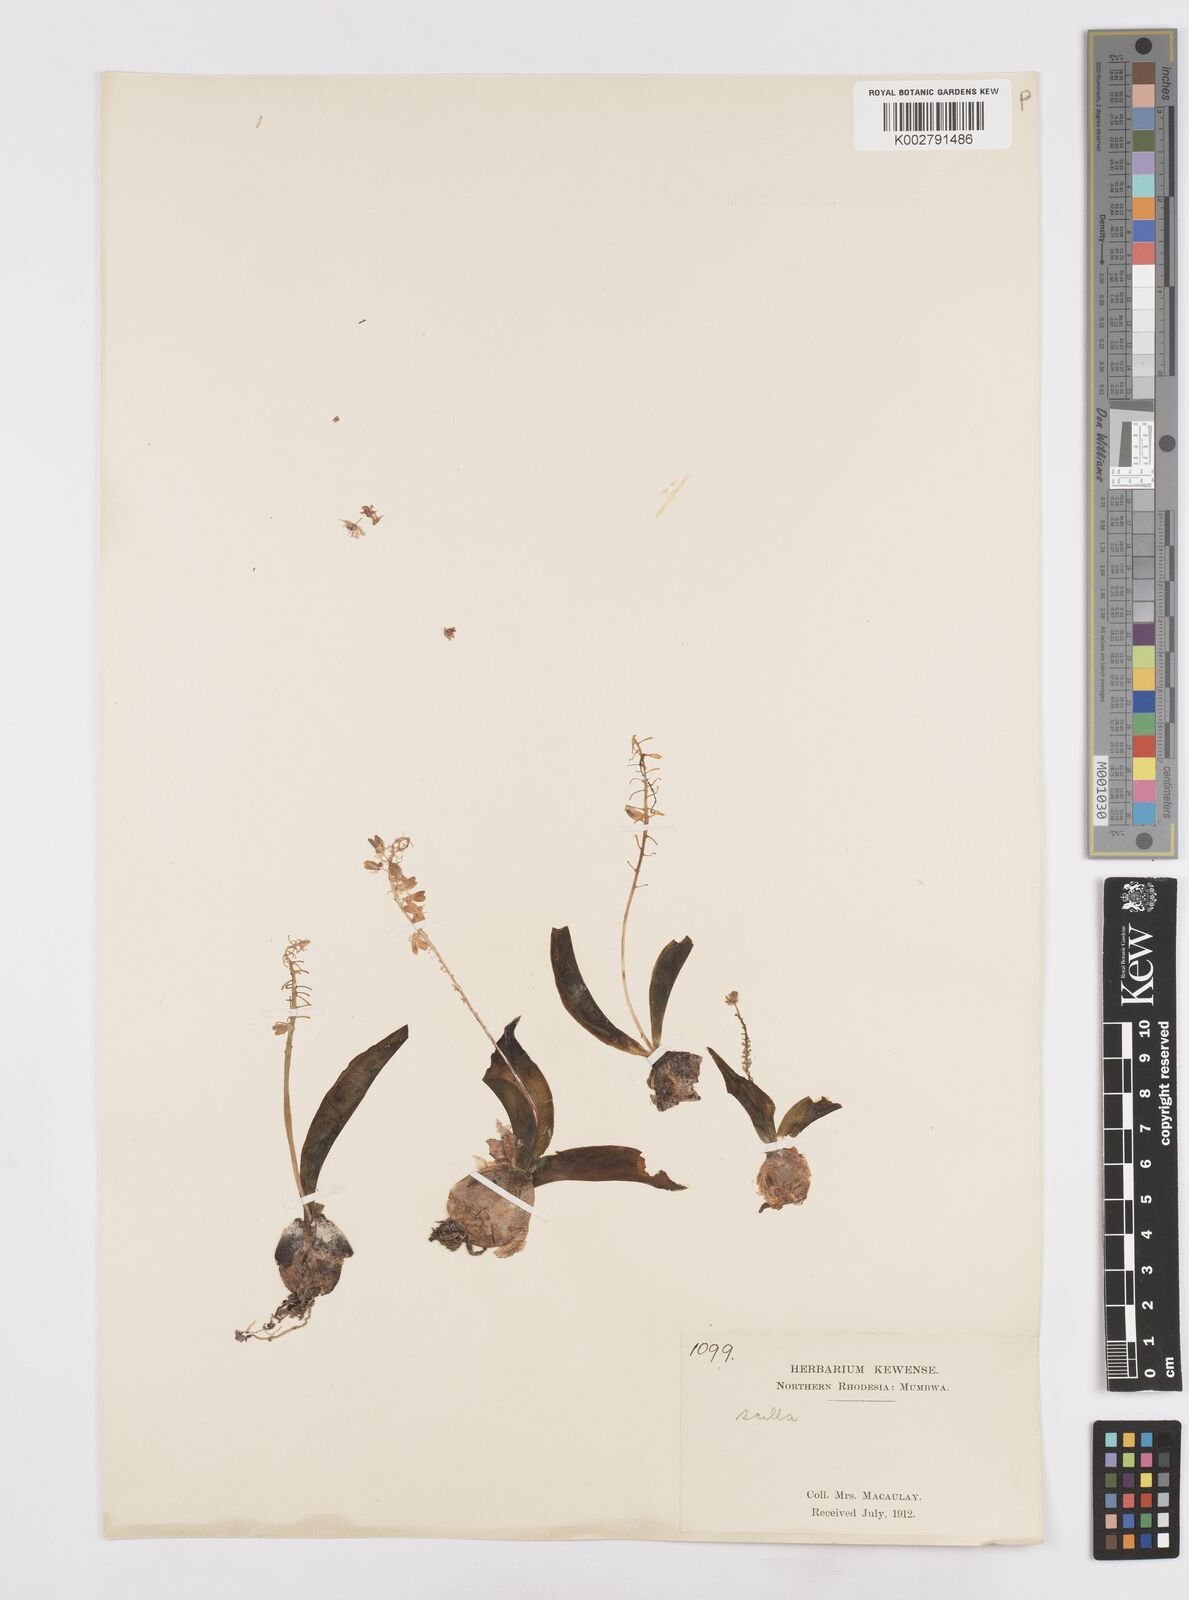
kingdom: Plantae
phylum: Tracheophyta
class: Liliopsida
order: Asparagales
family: Asparagaceae
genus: Scilla
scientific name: Scilla
